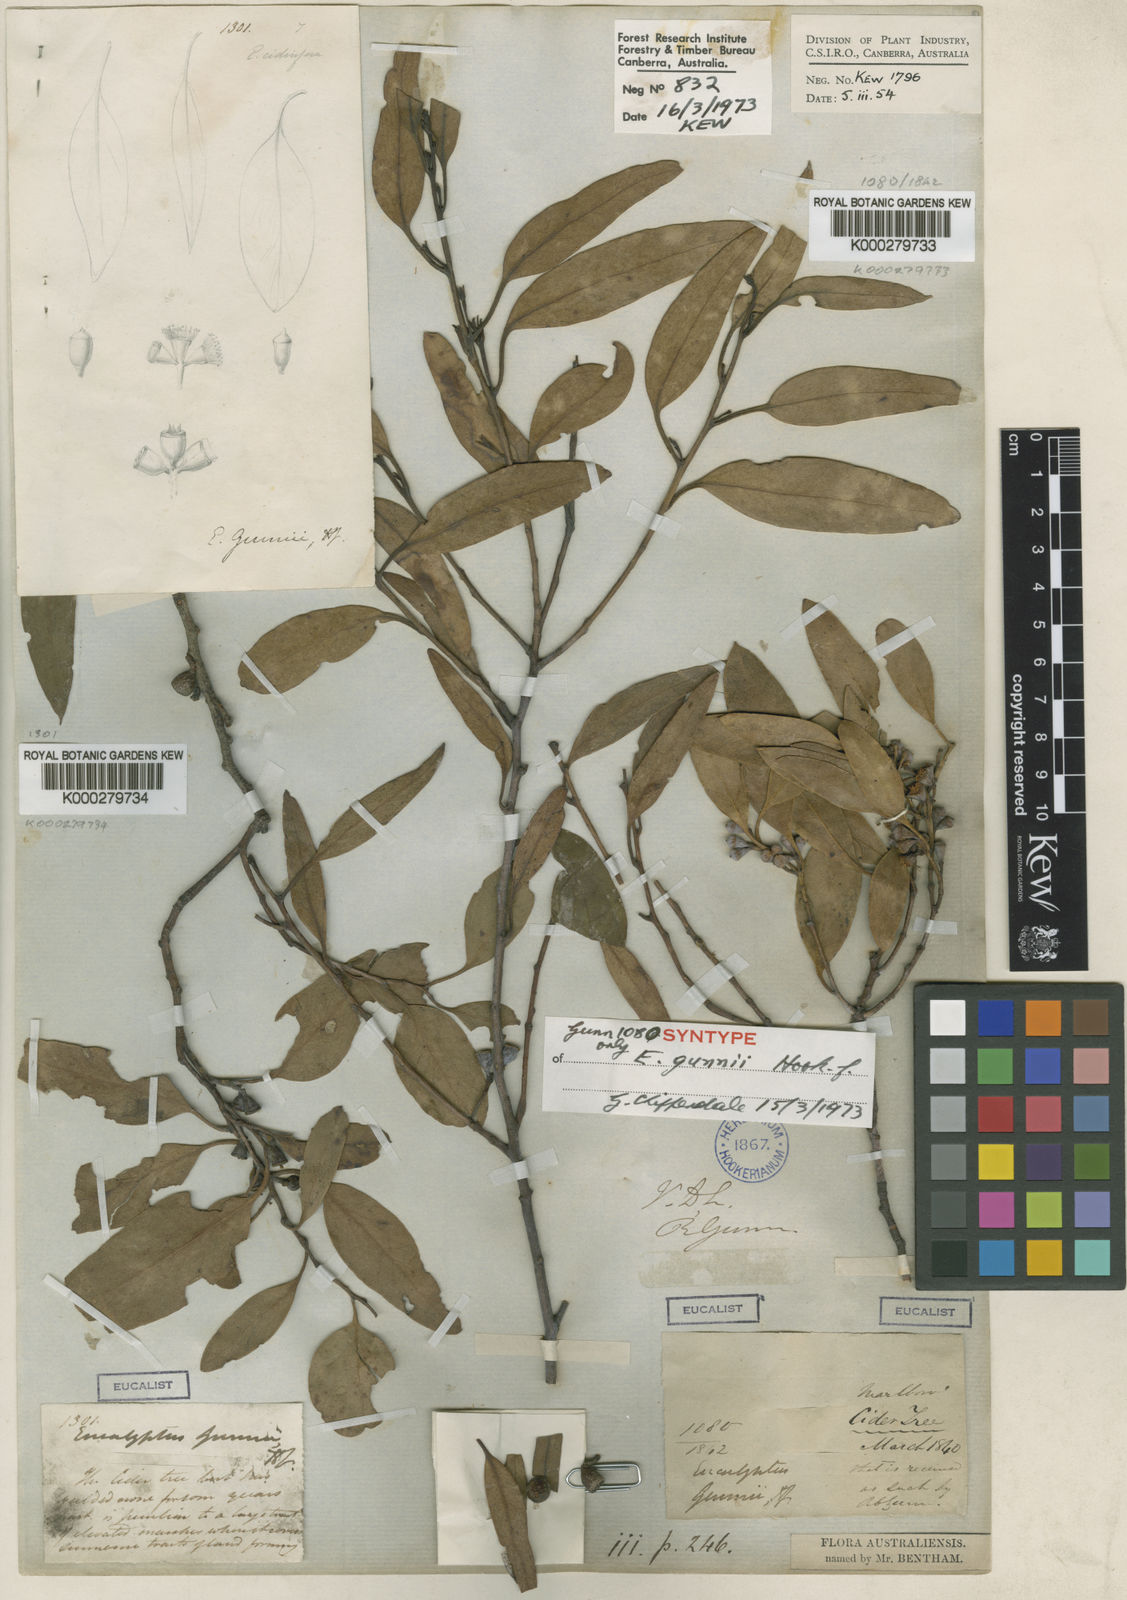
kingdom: Plantae
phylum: Tracheophyta
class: Magnoliopsida
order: Myrtales
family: Myrtaceae
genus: Eucalyptus
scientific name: Eucalyptus gunnii
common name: Cider gum
